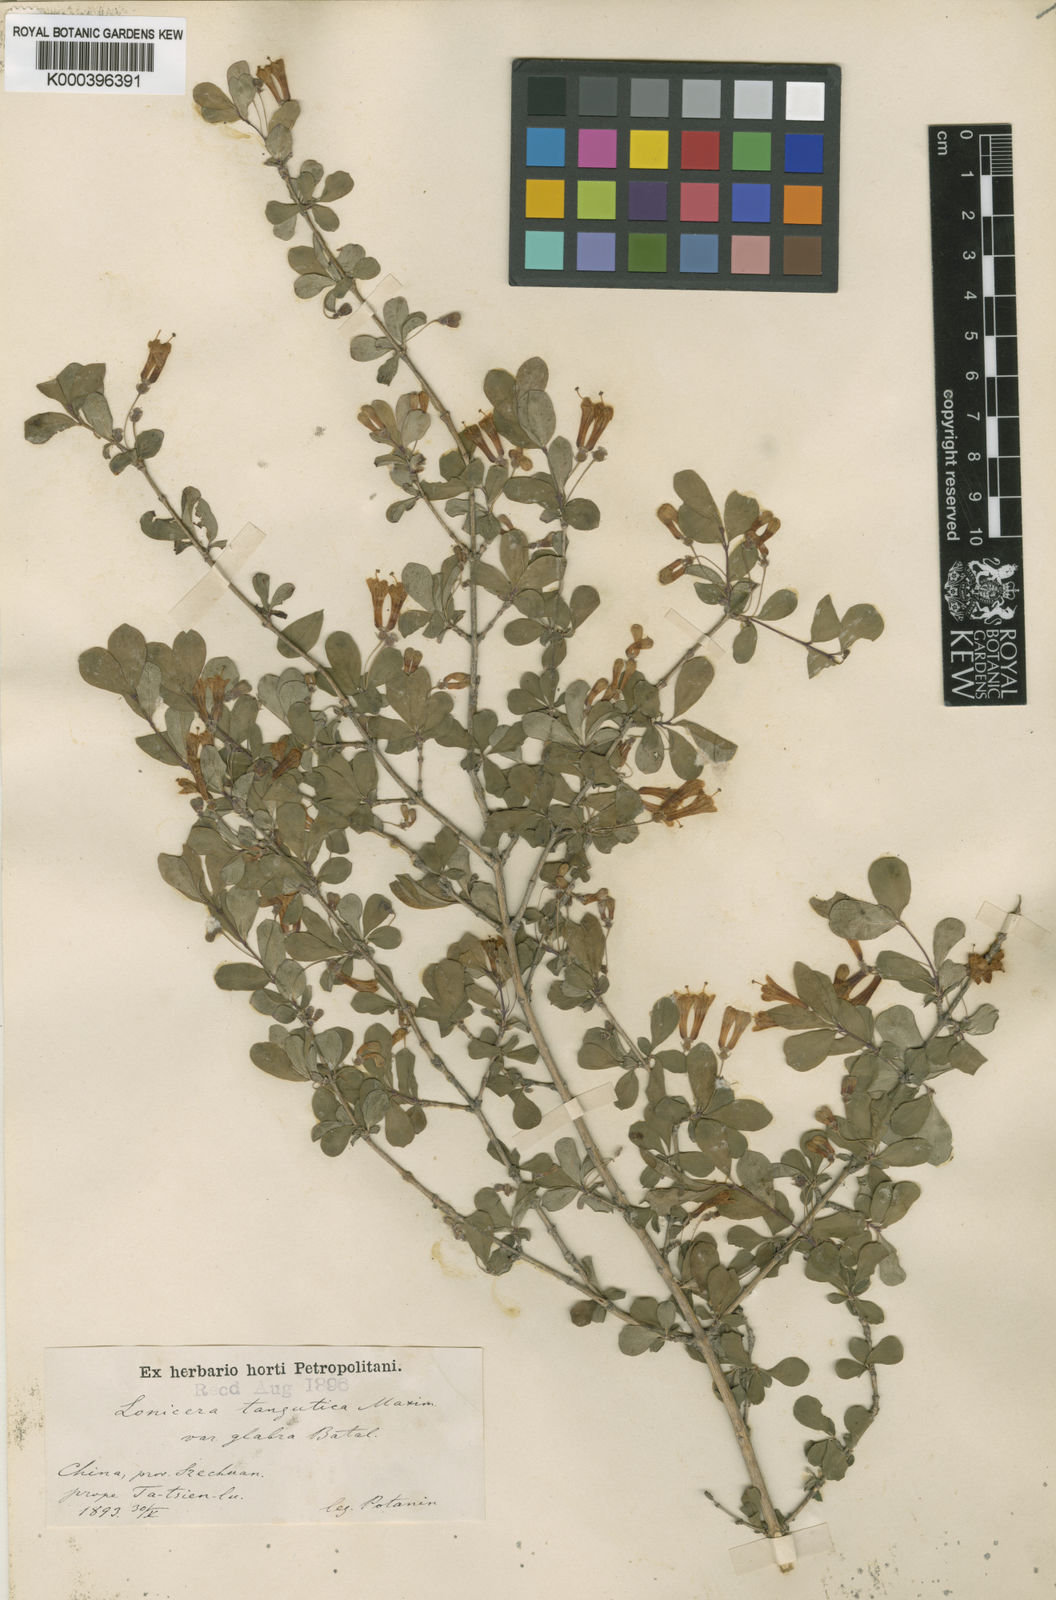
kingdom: Plantae
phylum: Tracheophyta
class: Magnoliopsida
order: Dipsacales
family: Caprifoliaceae
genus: Lonicera
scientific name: Lonicera tangutica
